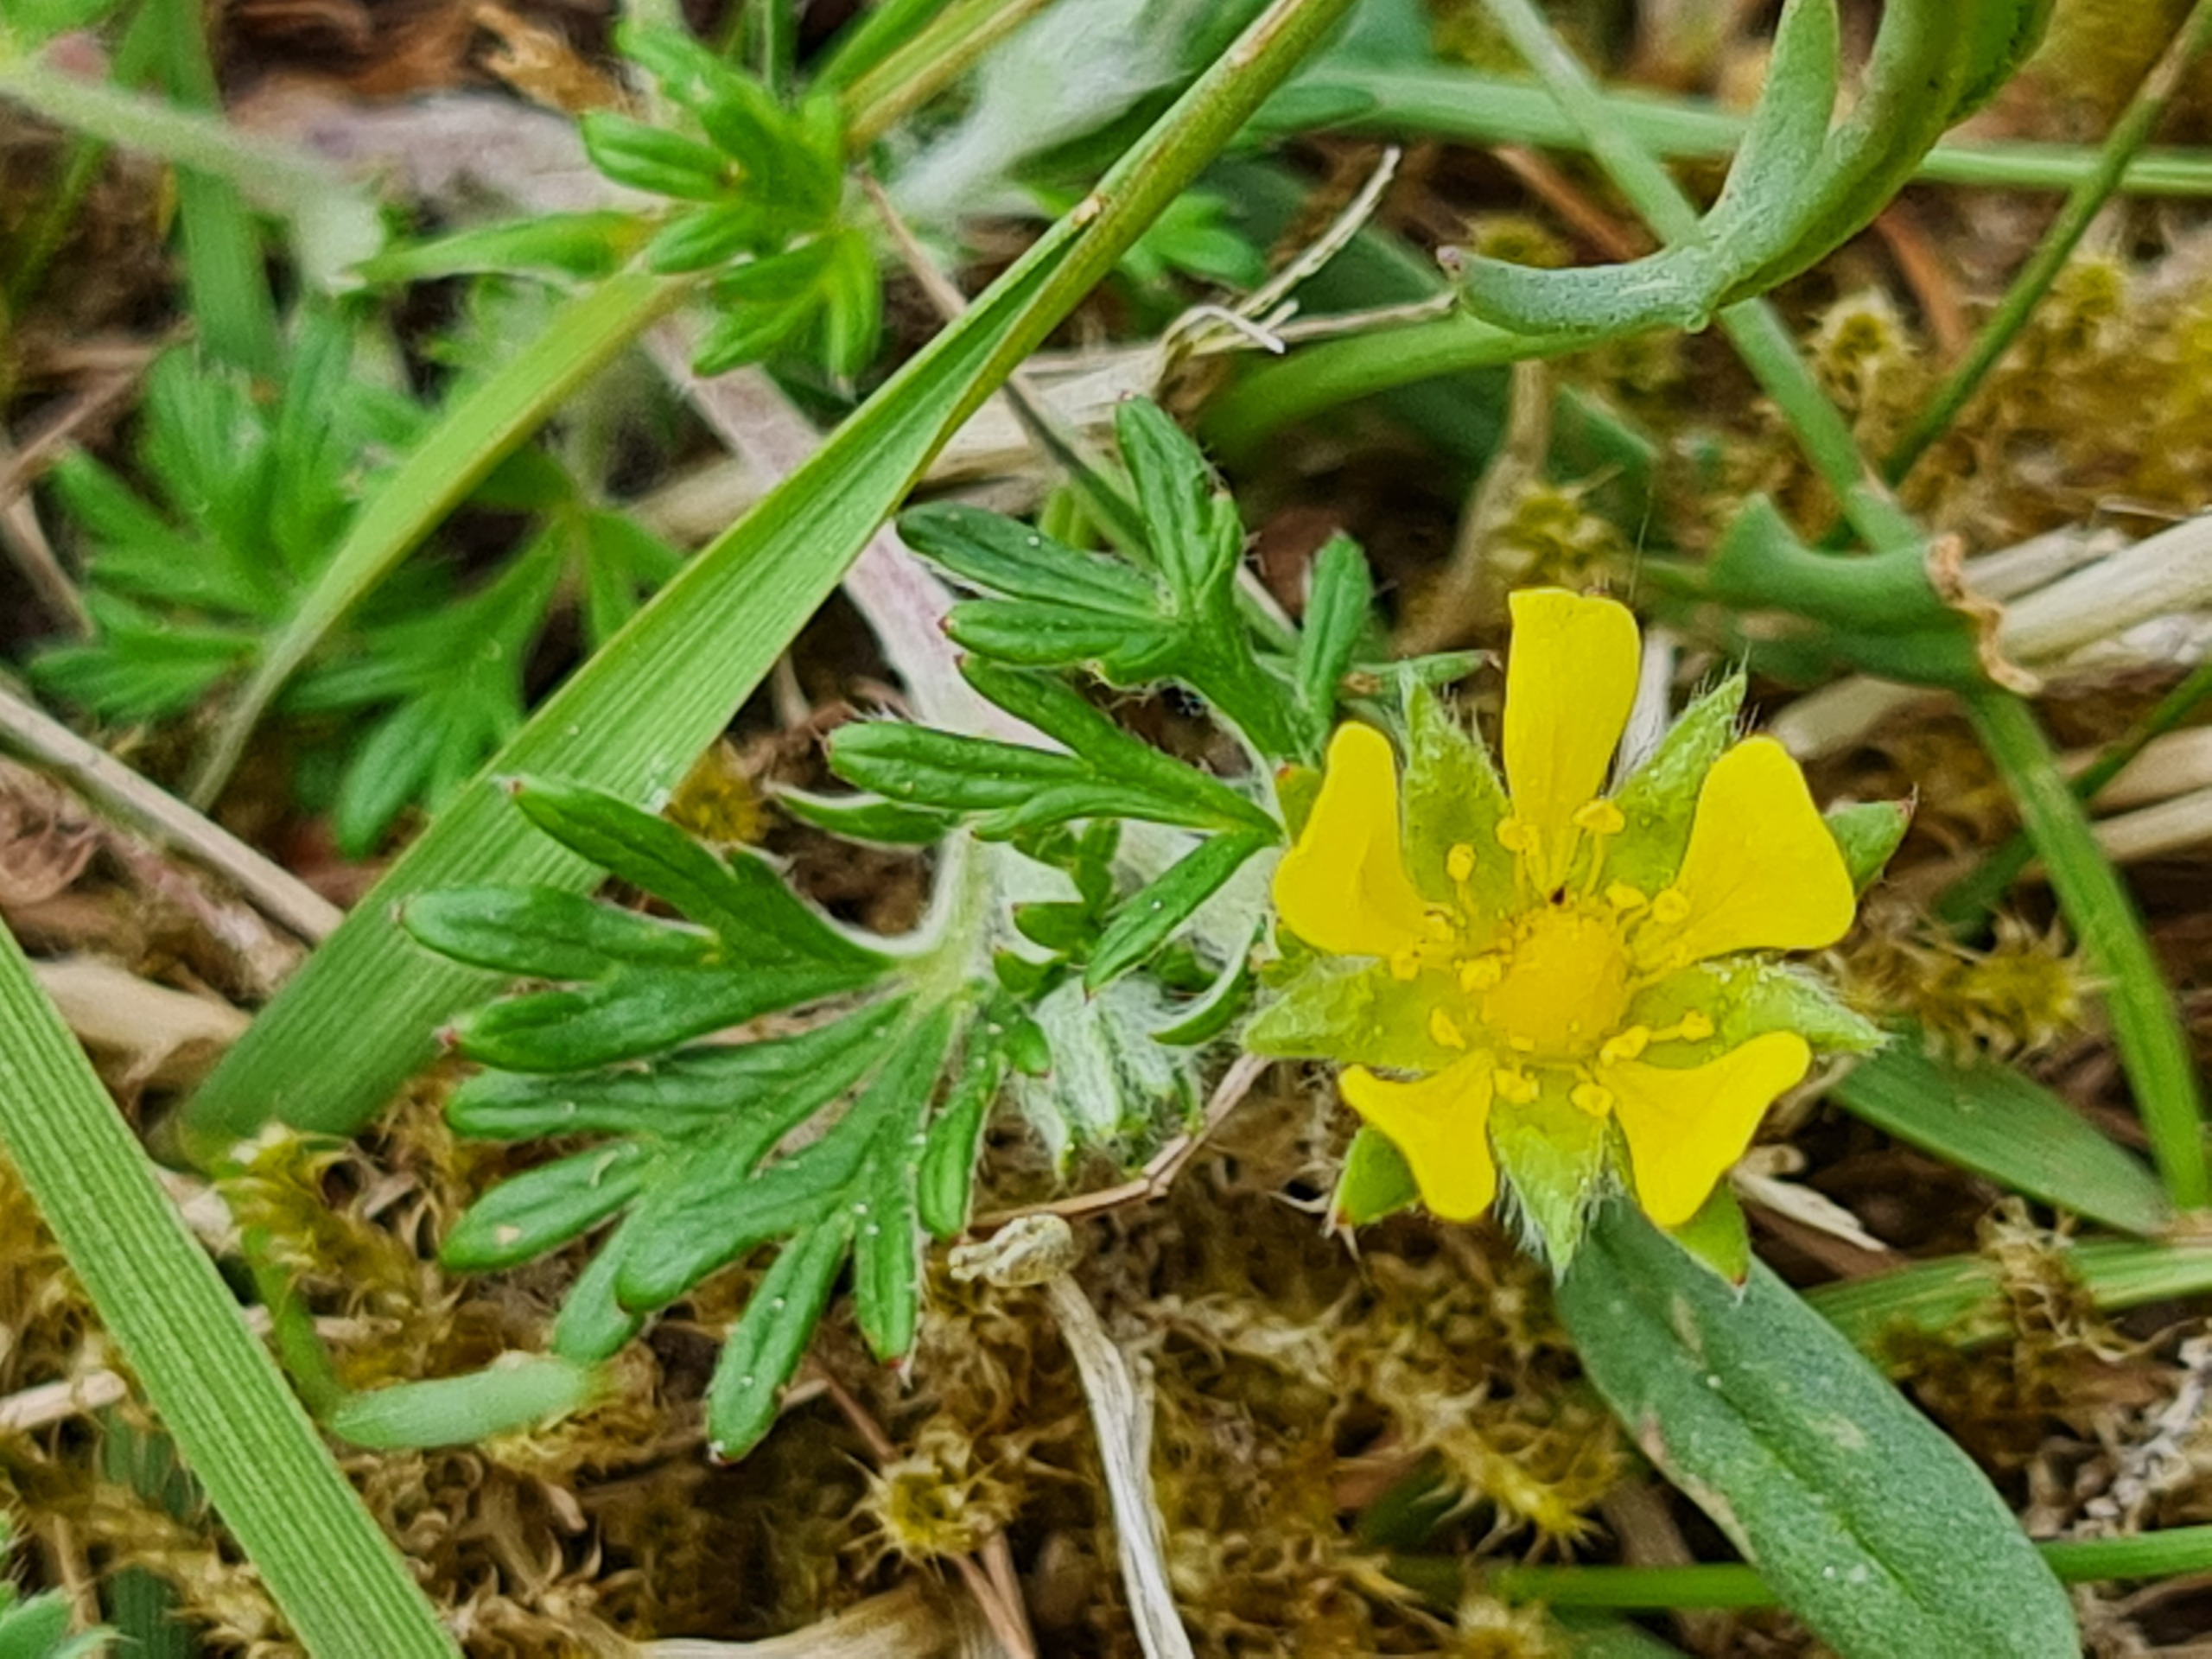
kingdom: Plantae
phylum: Tracheophyta
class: Magnoliopsida
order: Rosales
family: Rosaceae
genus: Potentilla
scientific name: Potentilla argentea
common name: Sølv-potentil
